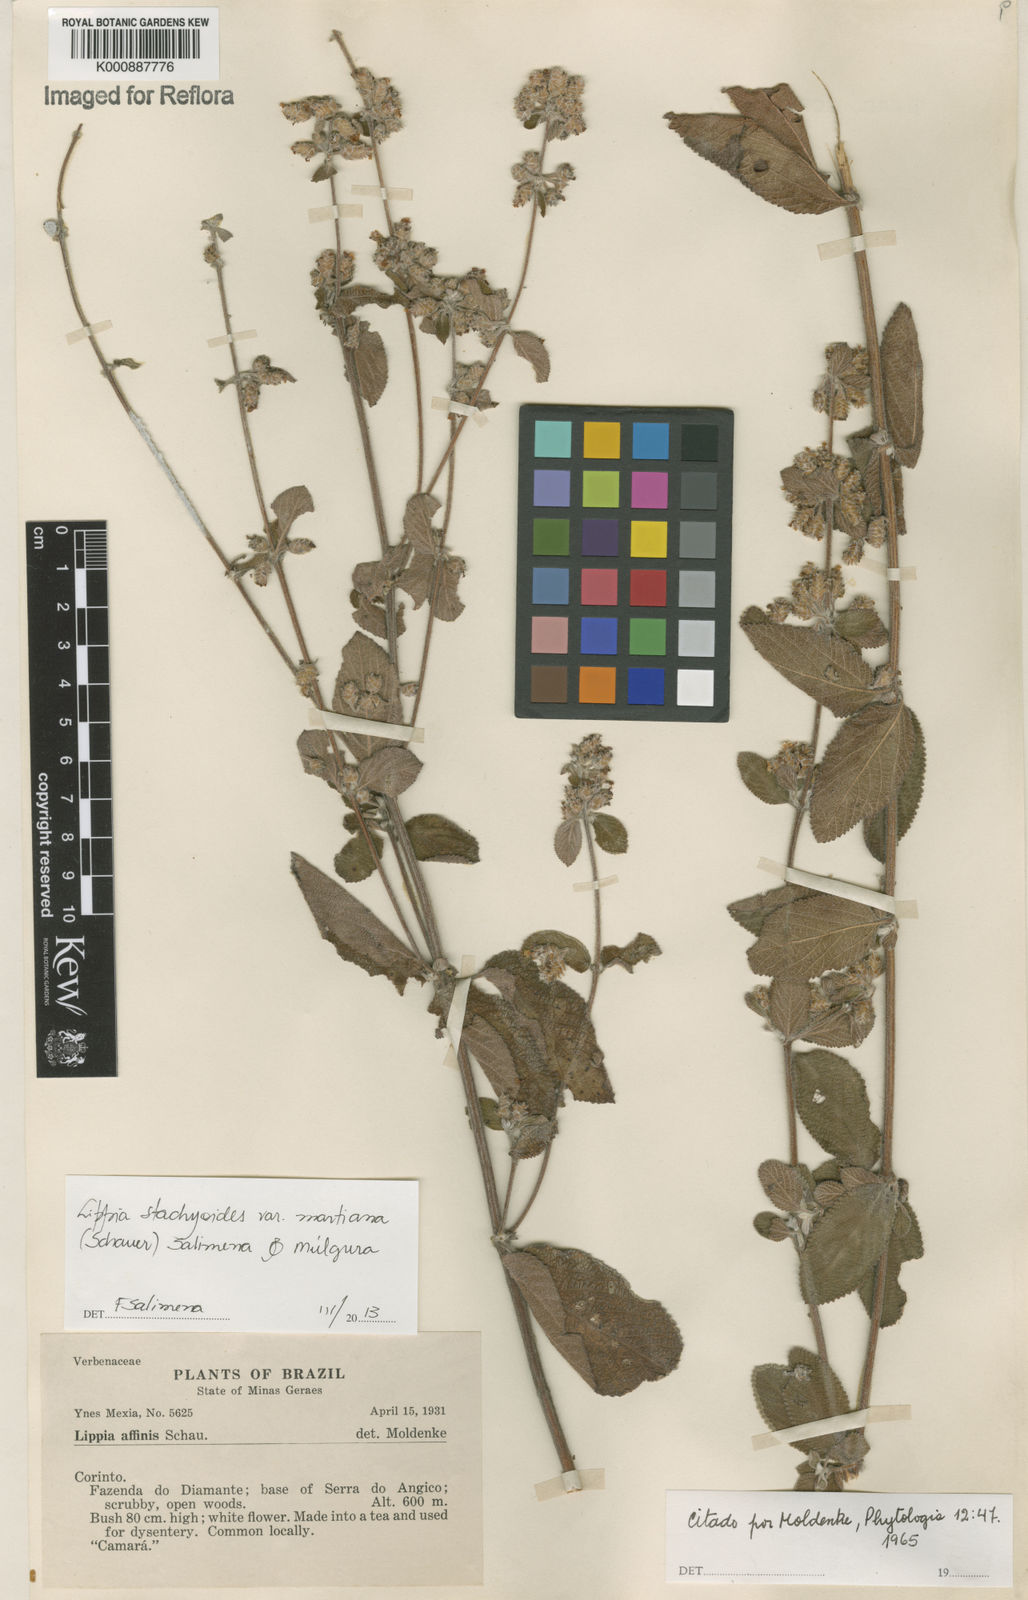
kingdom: Plantae
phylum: Tracheophyta
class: Magnoliopsida
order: Lamiales
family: Verbenaceae
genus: Lippia
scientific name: Lippia stachyoides
